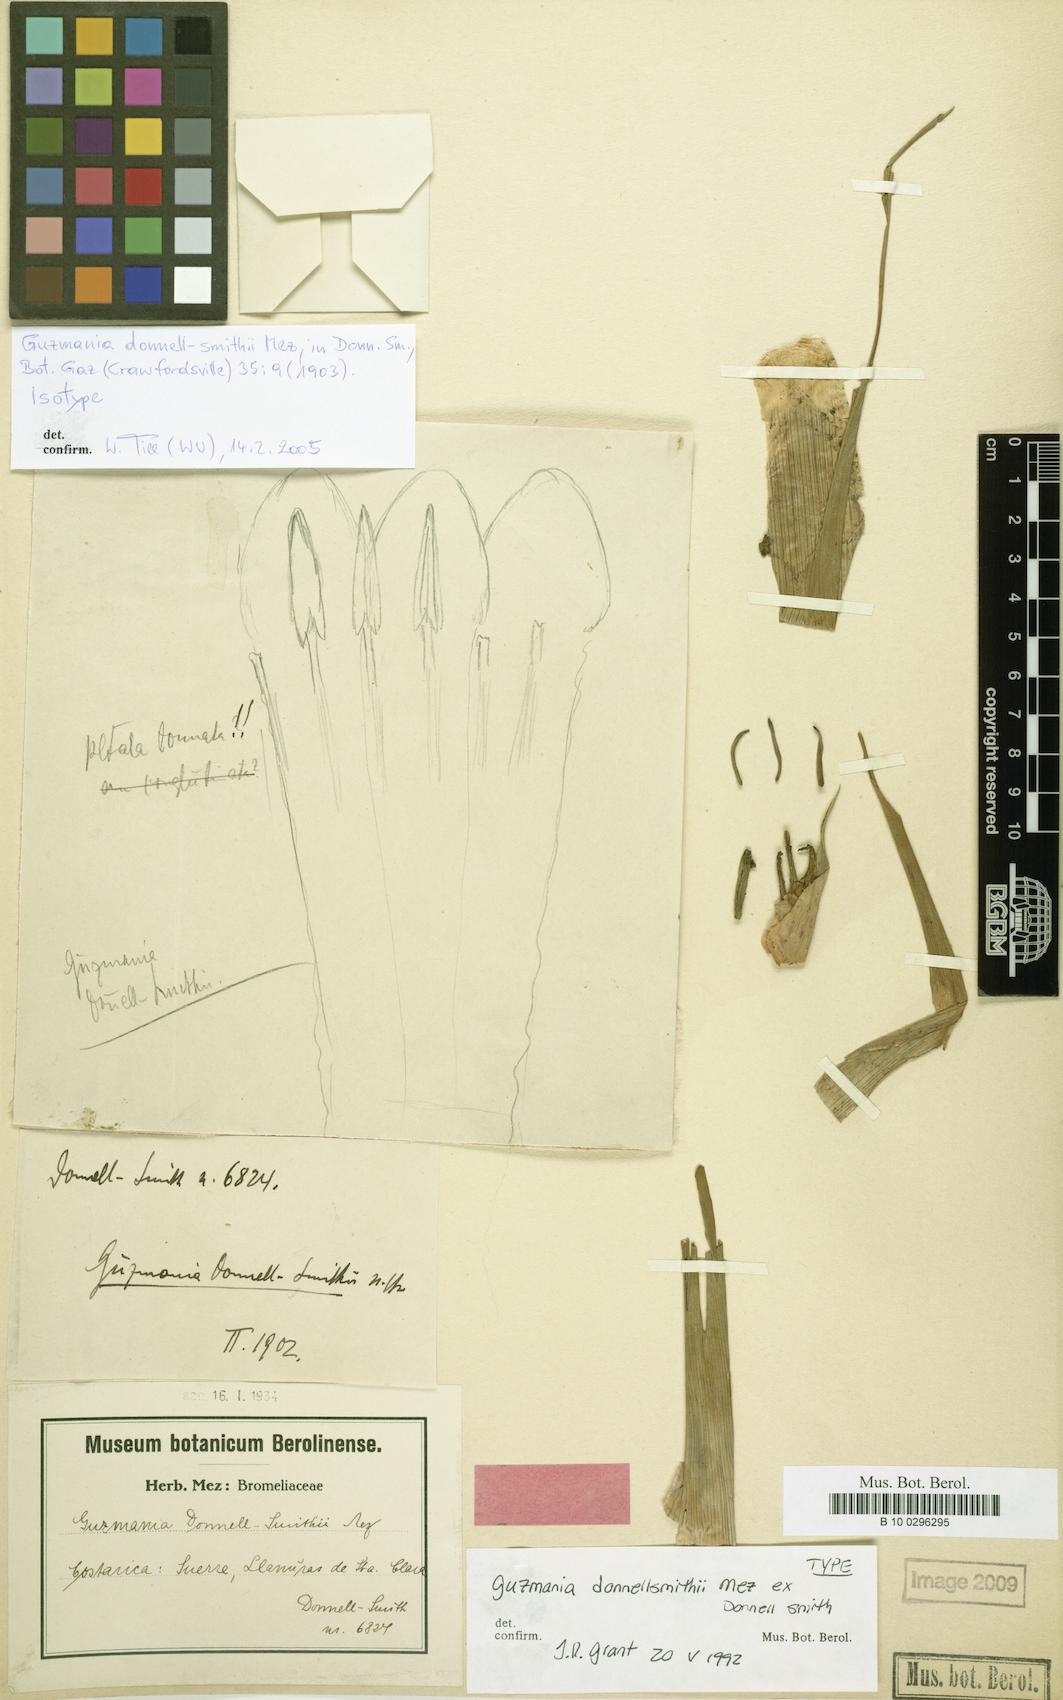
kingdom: Plantae
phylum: Tracheophyta
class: Liliopsida
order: Poales
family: Bromeliaceae
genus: Guzmania
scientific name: Guzmania donnellsmithii
